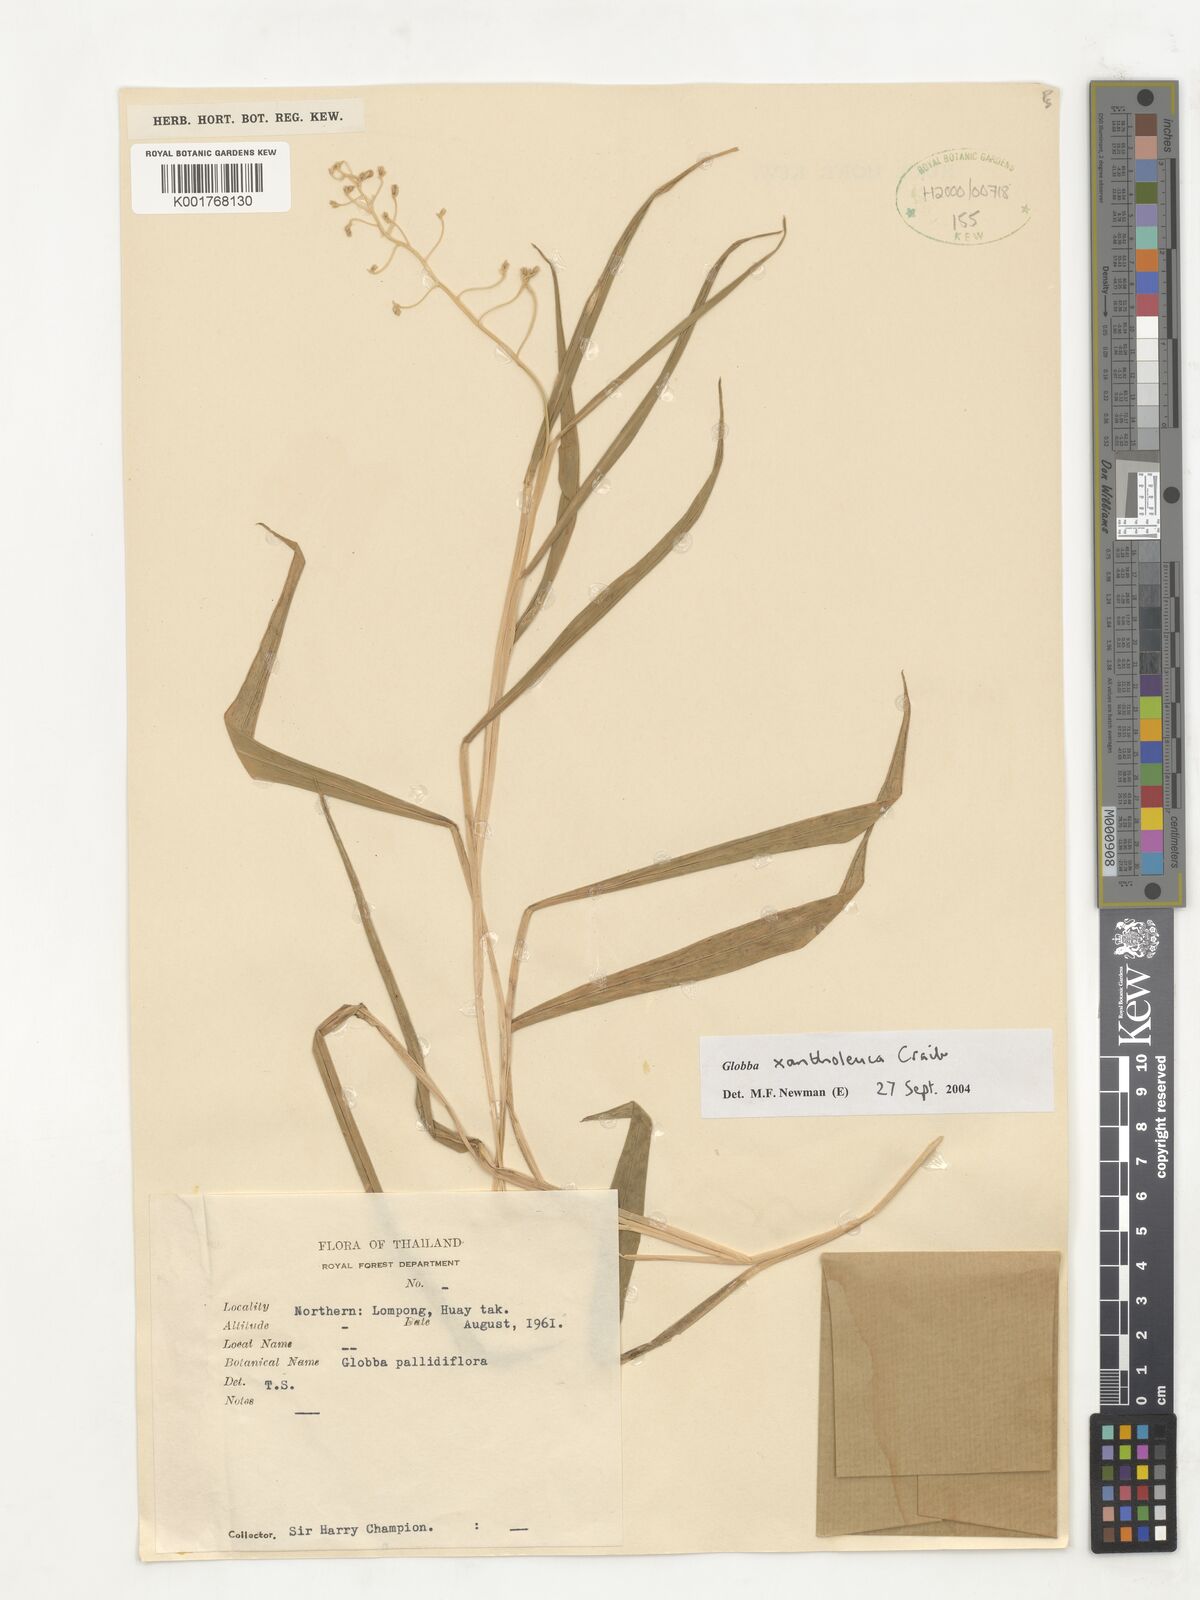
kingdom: Plantae
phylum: Tracheophyta
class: Liliopsida
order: Zingiberales
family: Zingiberaceae
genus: Globba
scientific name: Globba xantholeuca
